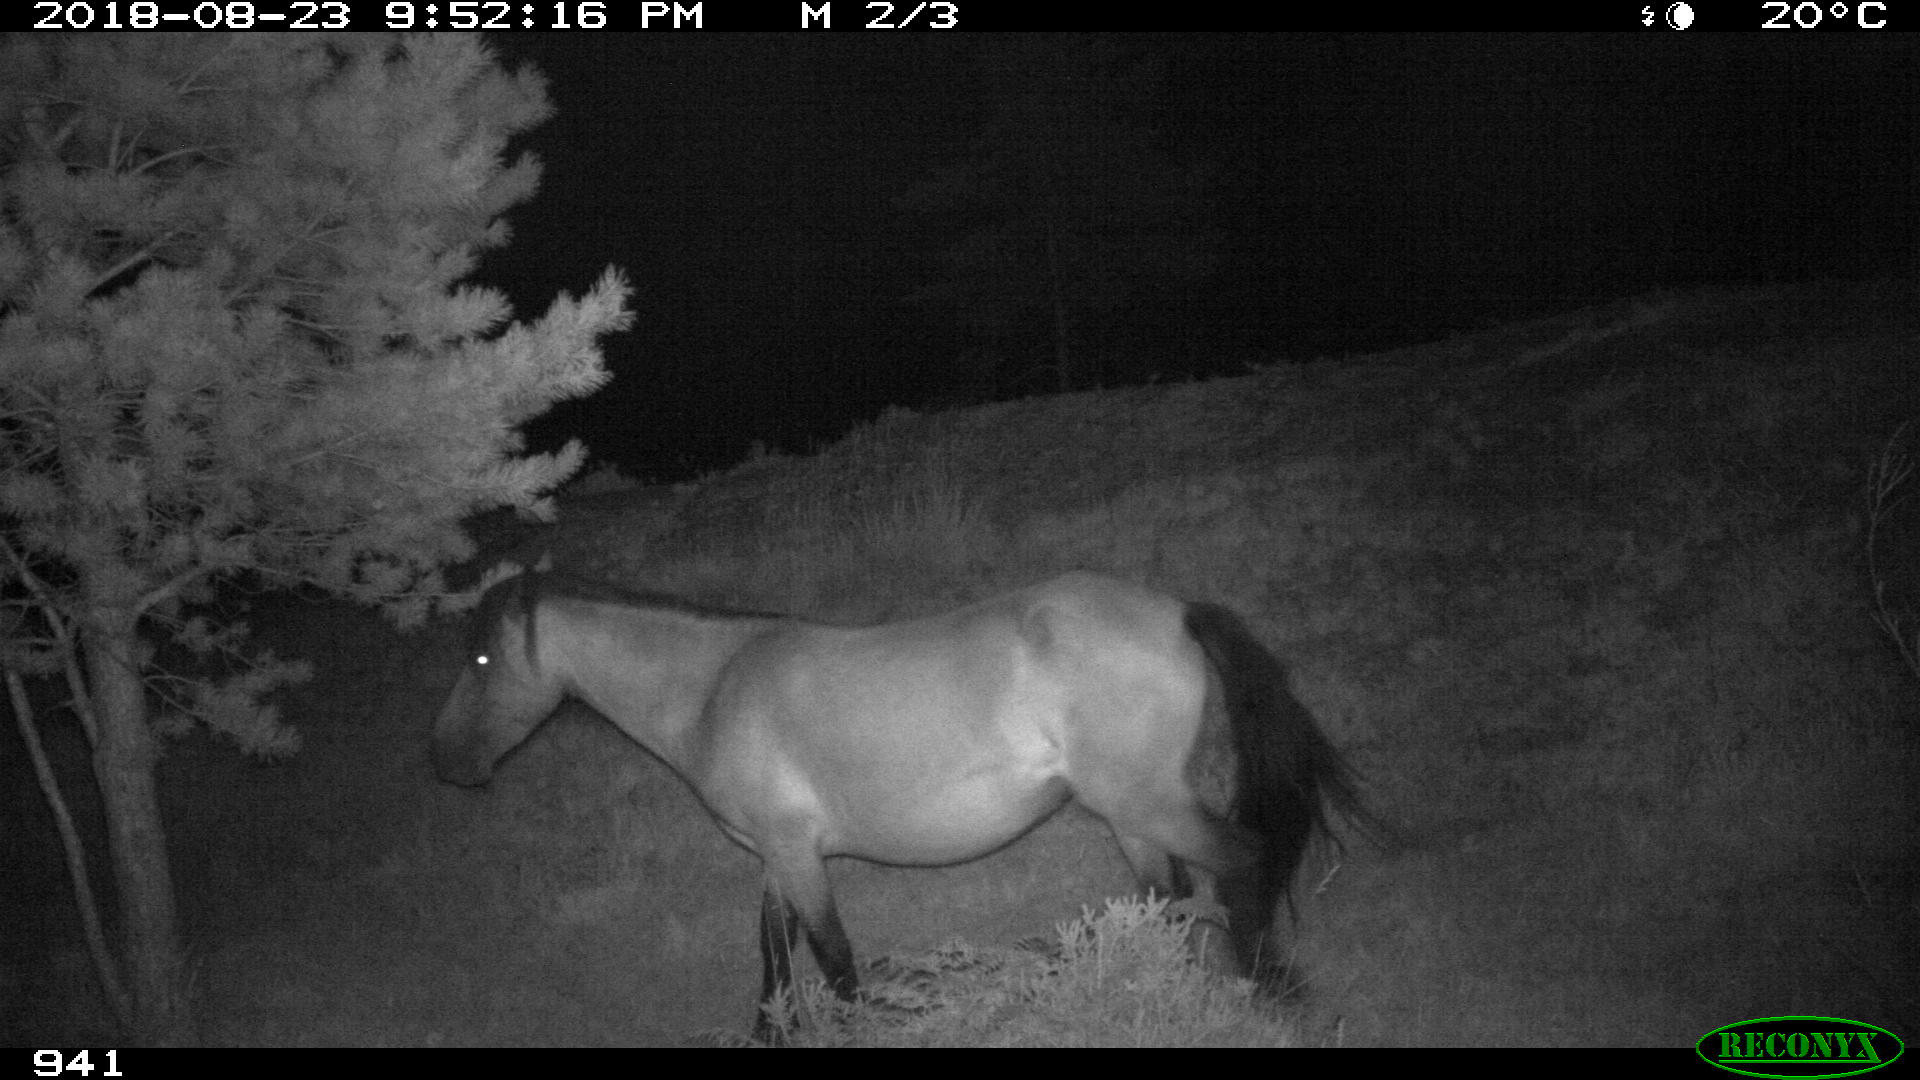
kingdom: Animalia
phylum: Chordata
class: Mammalia
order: Perissodactyla
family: Equidae
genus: Equus
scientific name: Equus caballus
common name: Horse
